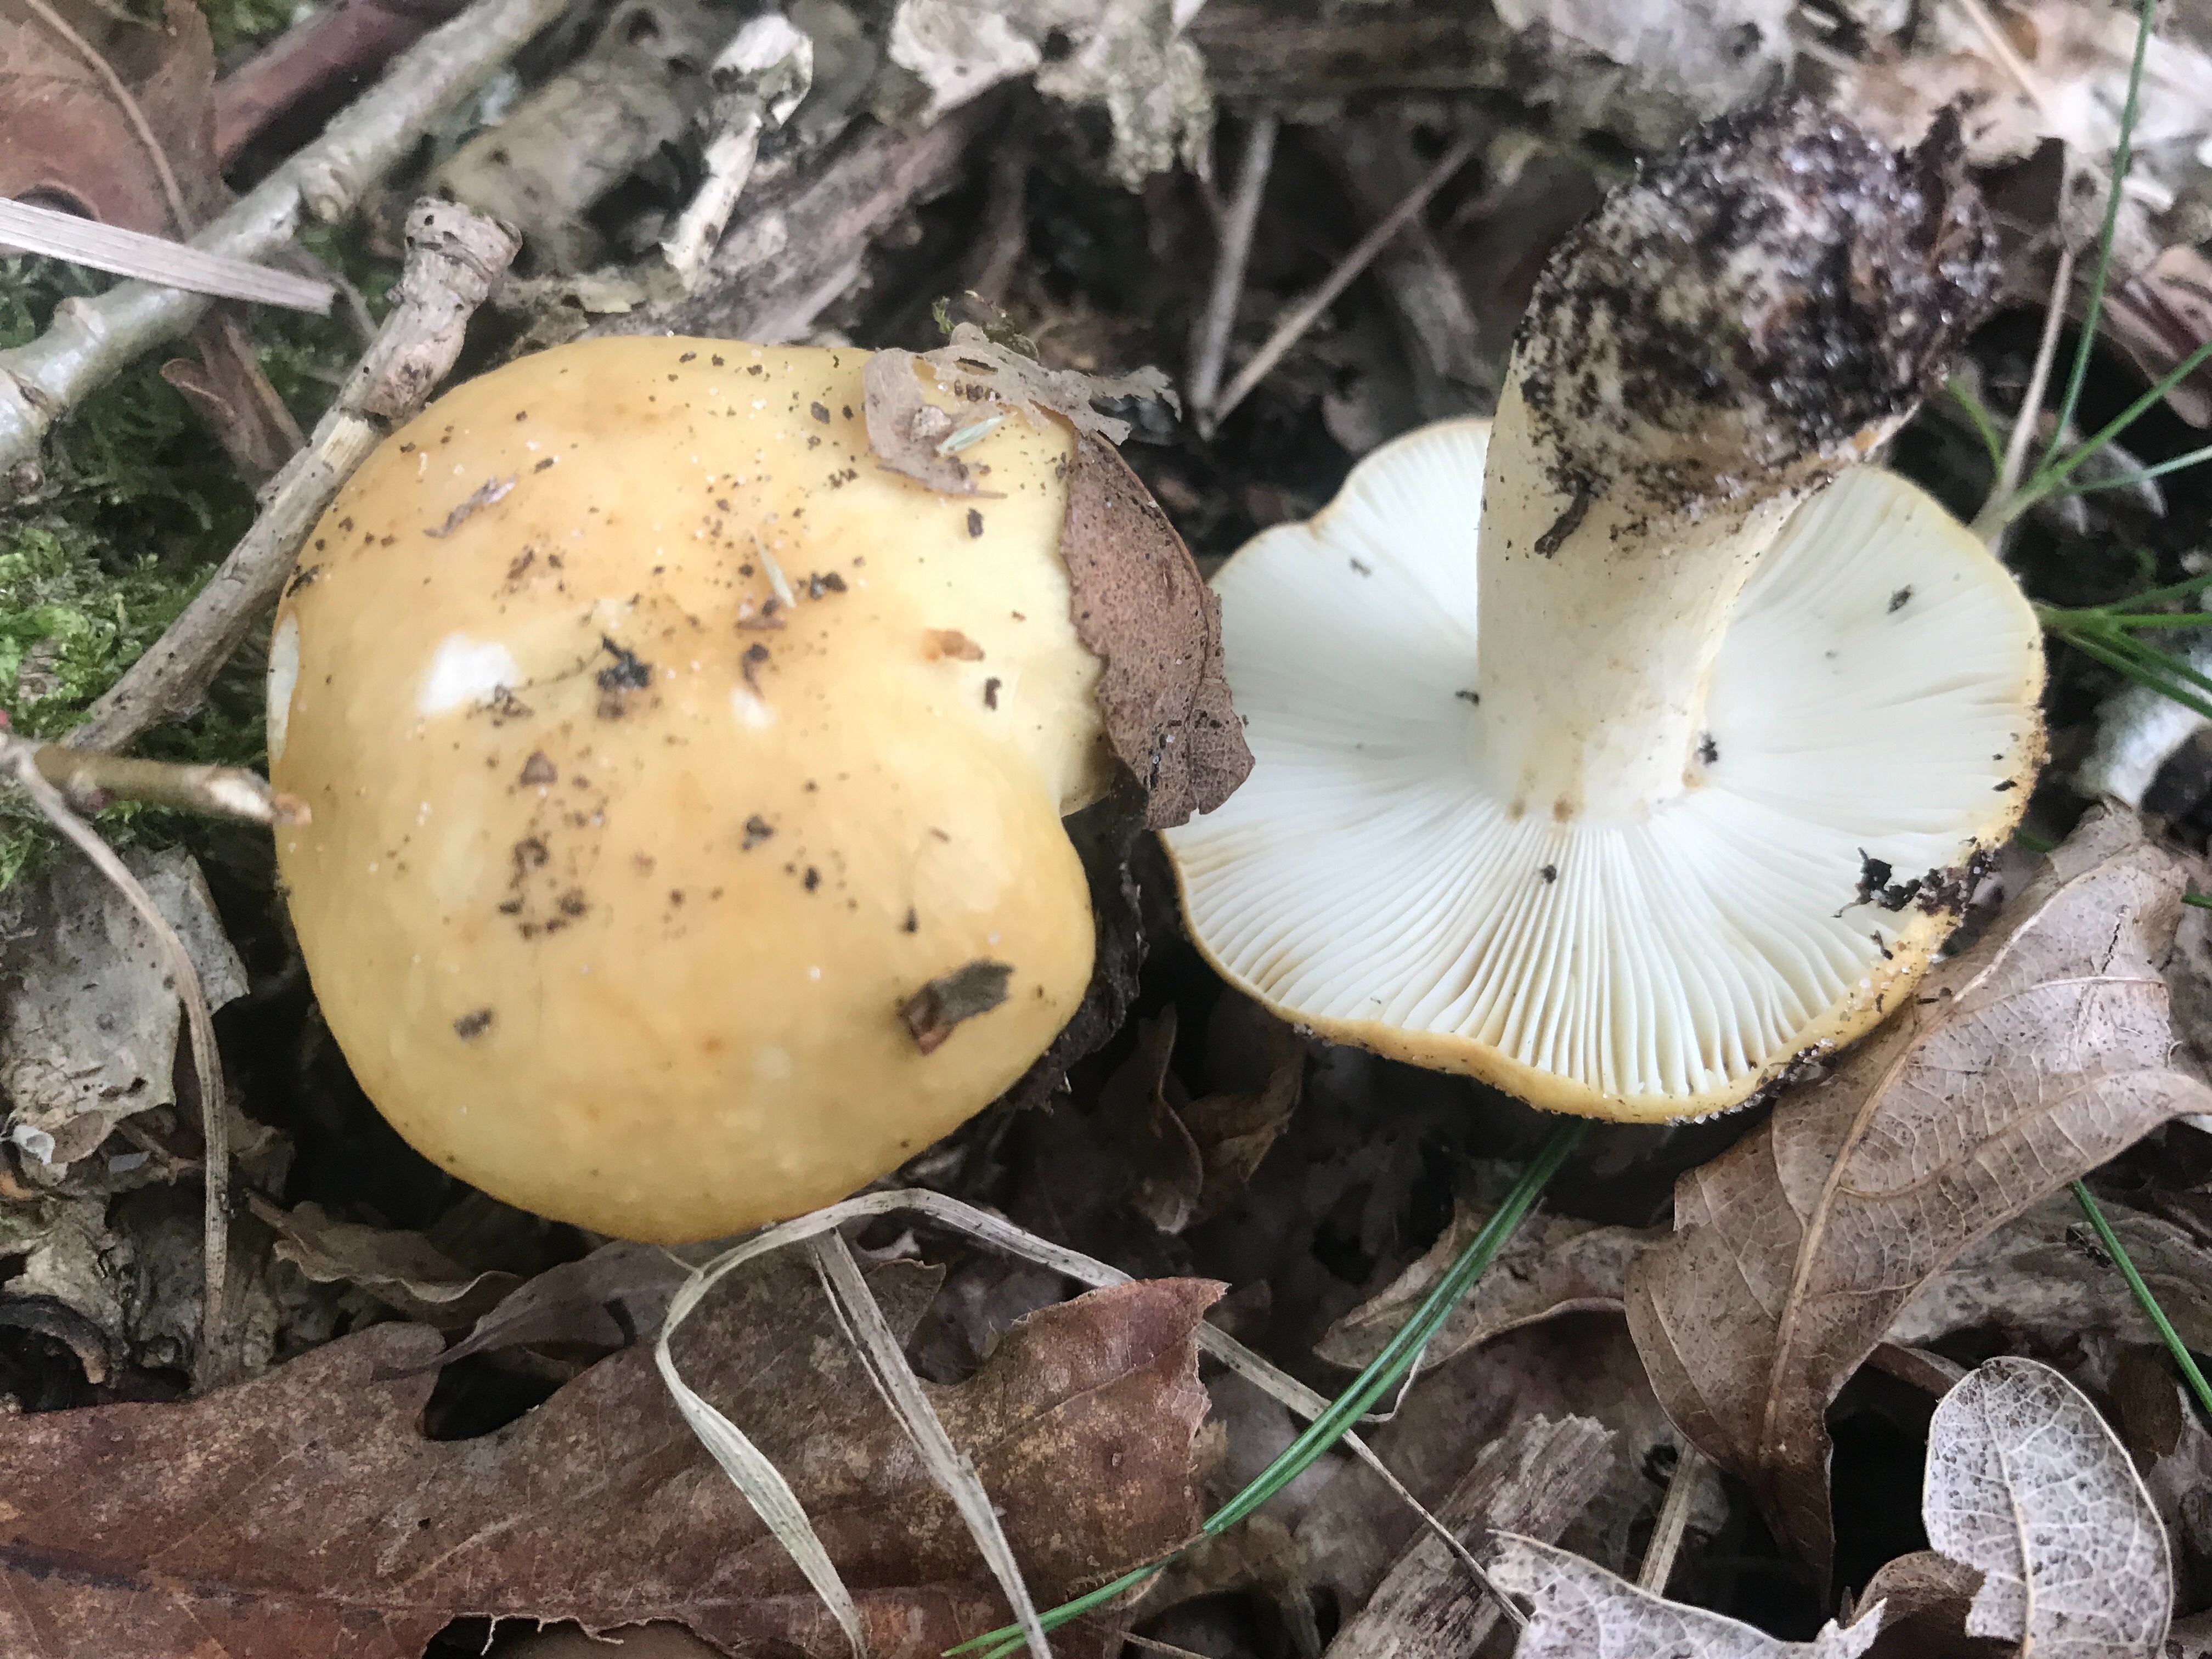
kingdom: Fungi
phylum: Basidiomycota
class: Agaricomycetes
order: Russulales
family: Russulaceae
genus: Russula
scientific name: Russula ochroleuca
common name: okkergul skørhat
